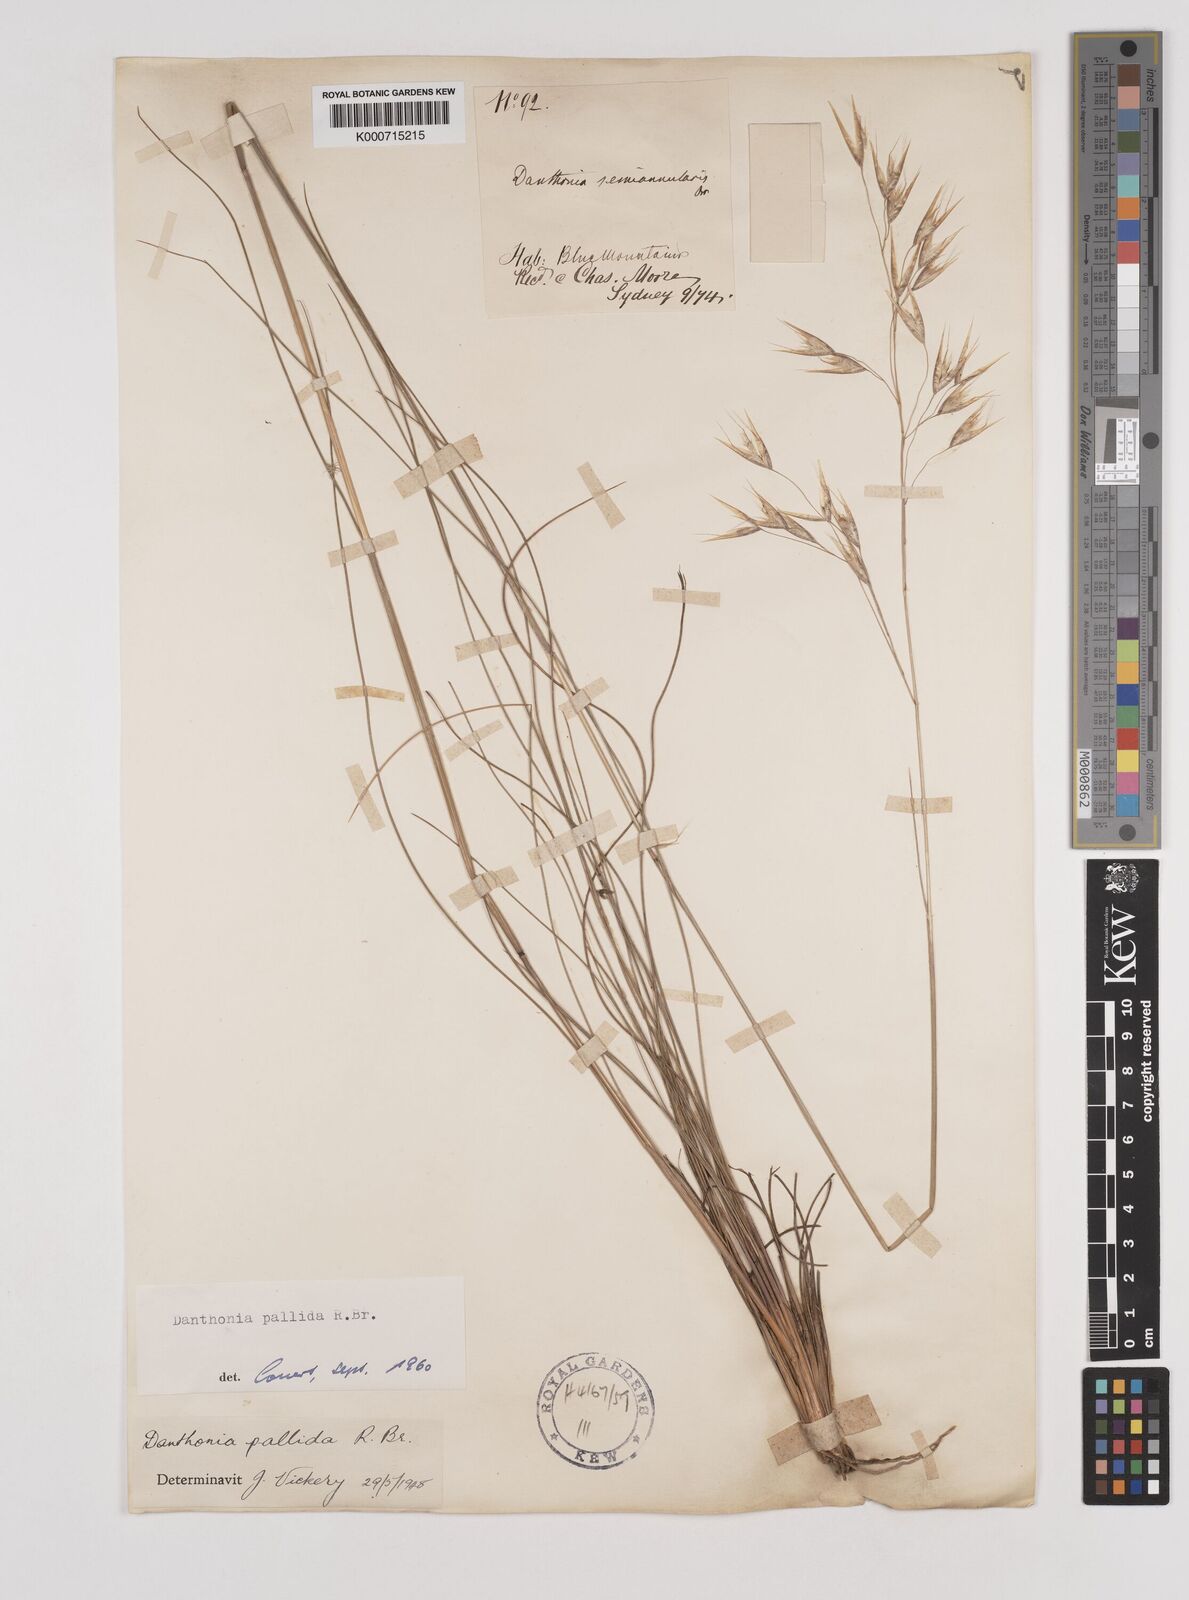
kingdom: Plantae
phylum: Tracheophyta
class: Liliopsida
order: Poales
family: Poaceae
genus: Rytidosperma
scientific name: Rytidosperma
